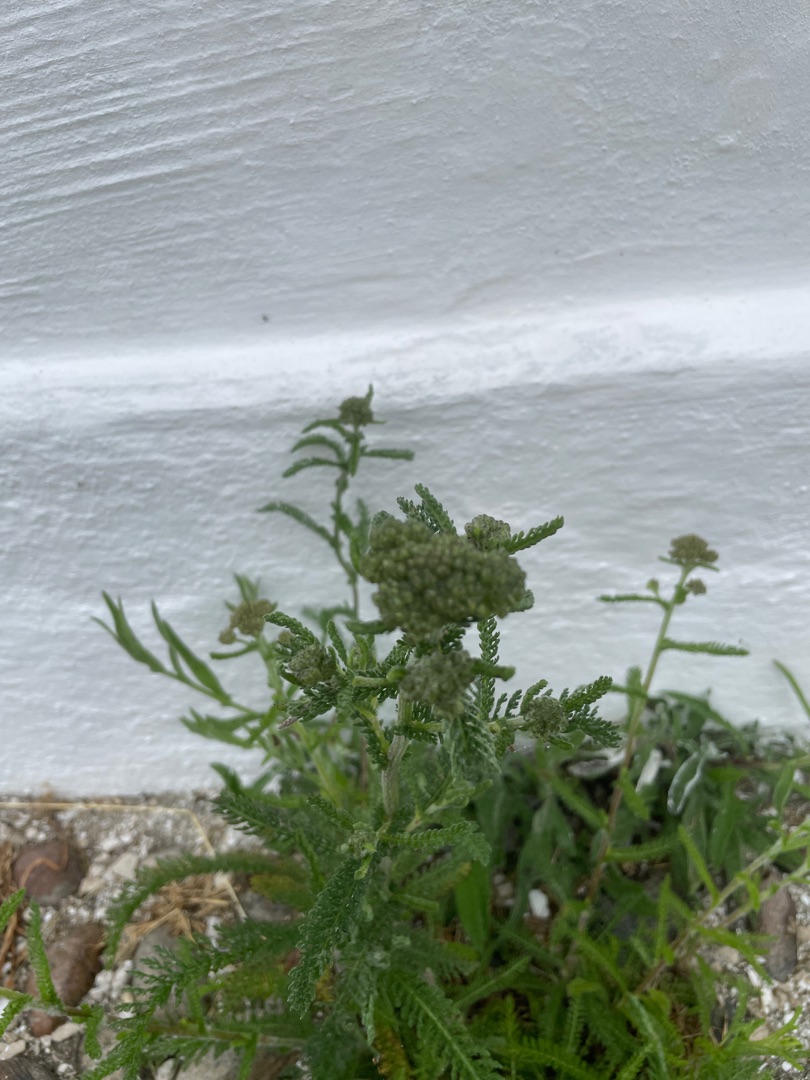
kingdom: Plantae
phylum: Tracheophyta
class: Magnoliopsida
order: Asterales
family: Asteraceae
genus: Achillea
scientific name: Achillea millefolium
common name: Almindelig røllike
